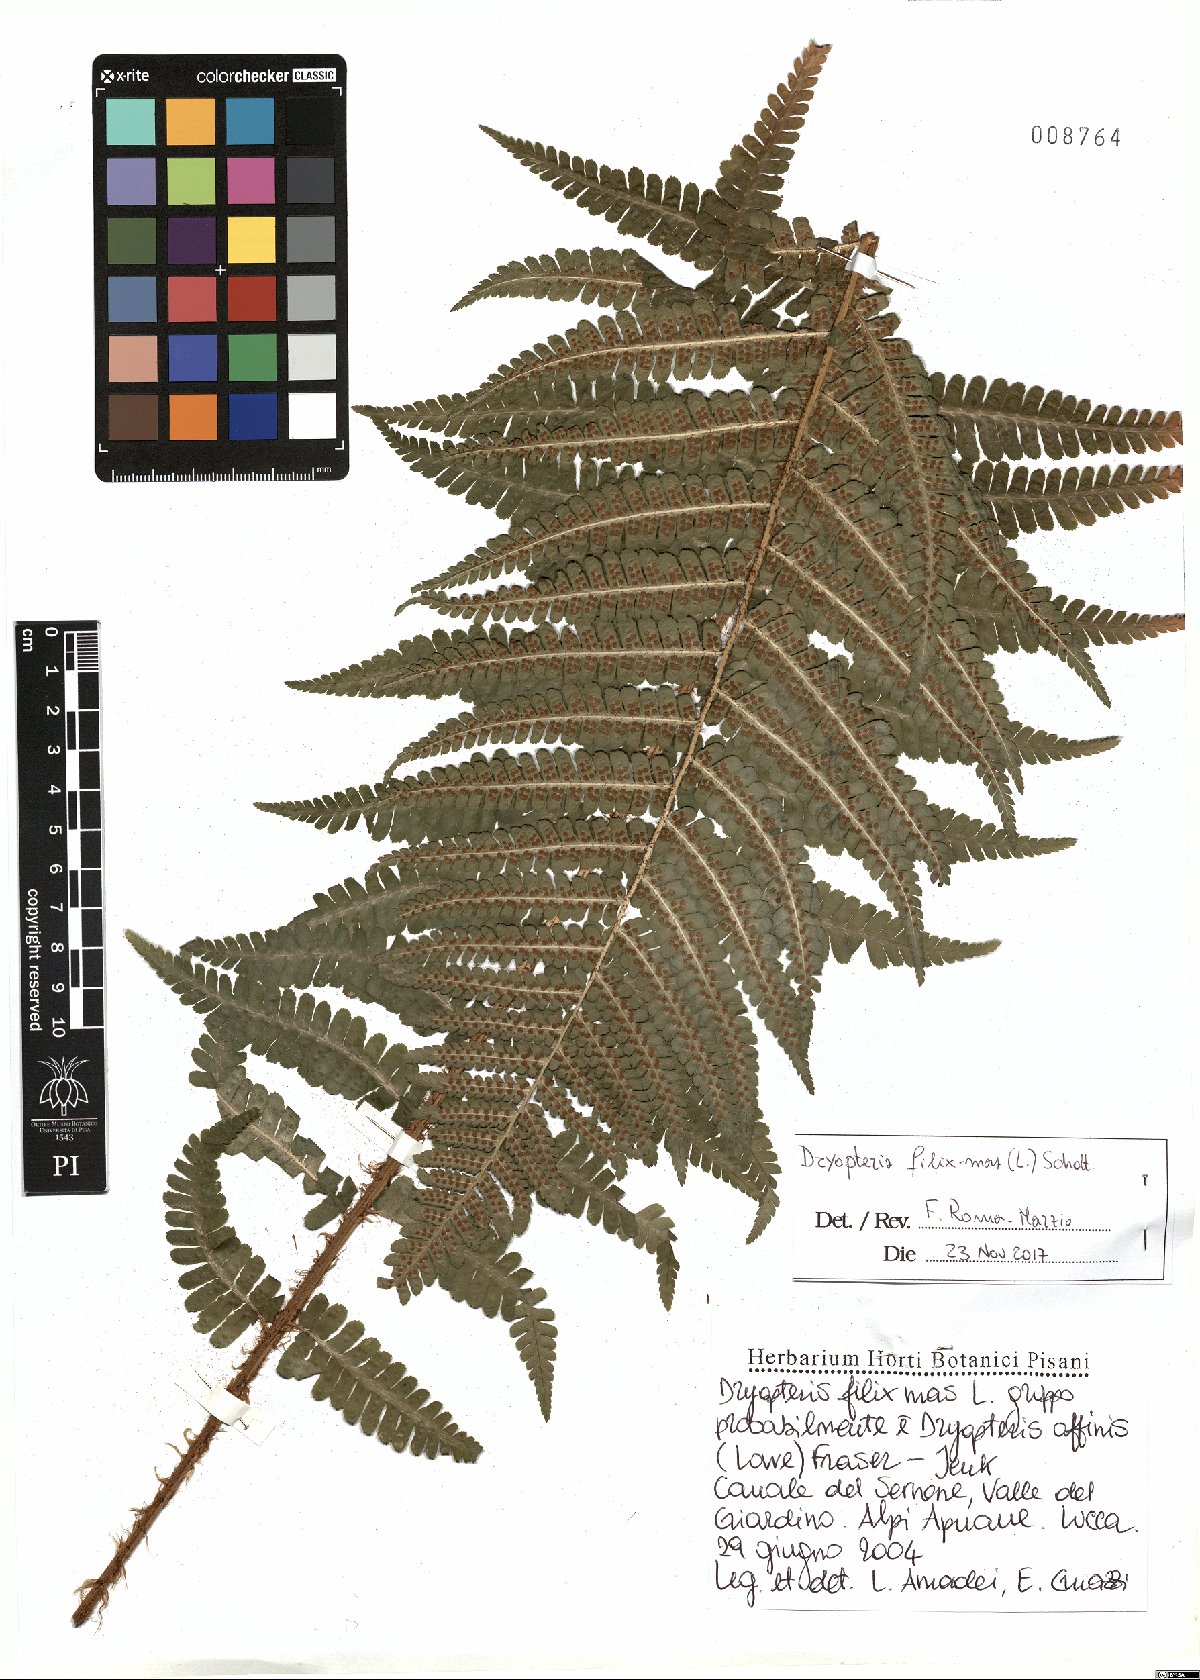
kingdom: Plantae
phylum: Tracheophyta
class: Polypodiopsida
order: Polypodiales
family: Dryopteridaceae
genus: Dryopteris
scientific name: Dryopteris borreri
